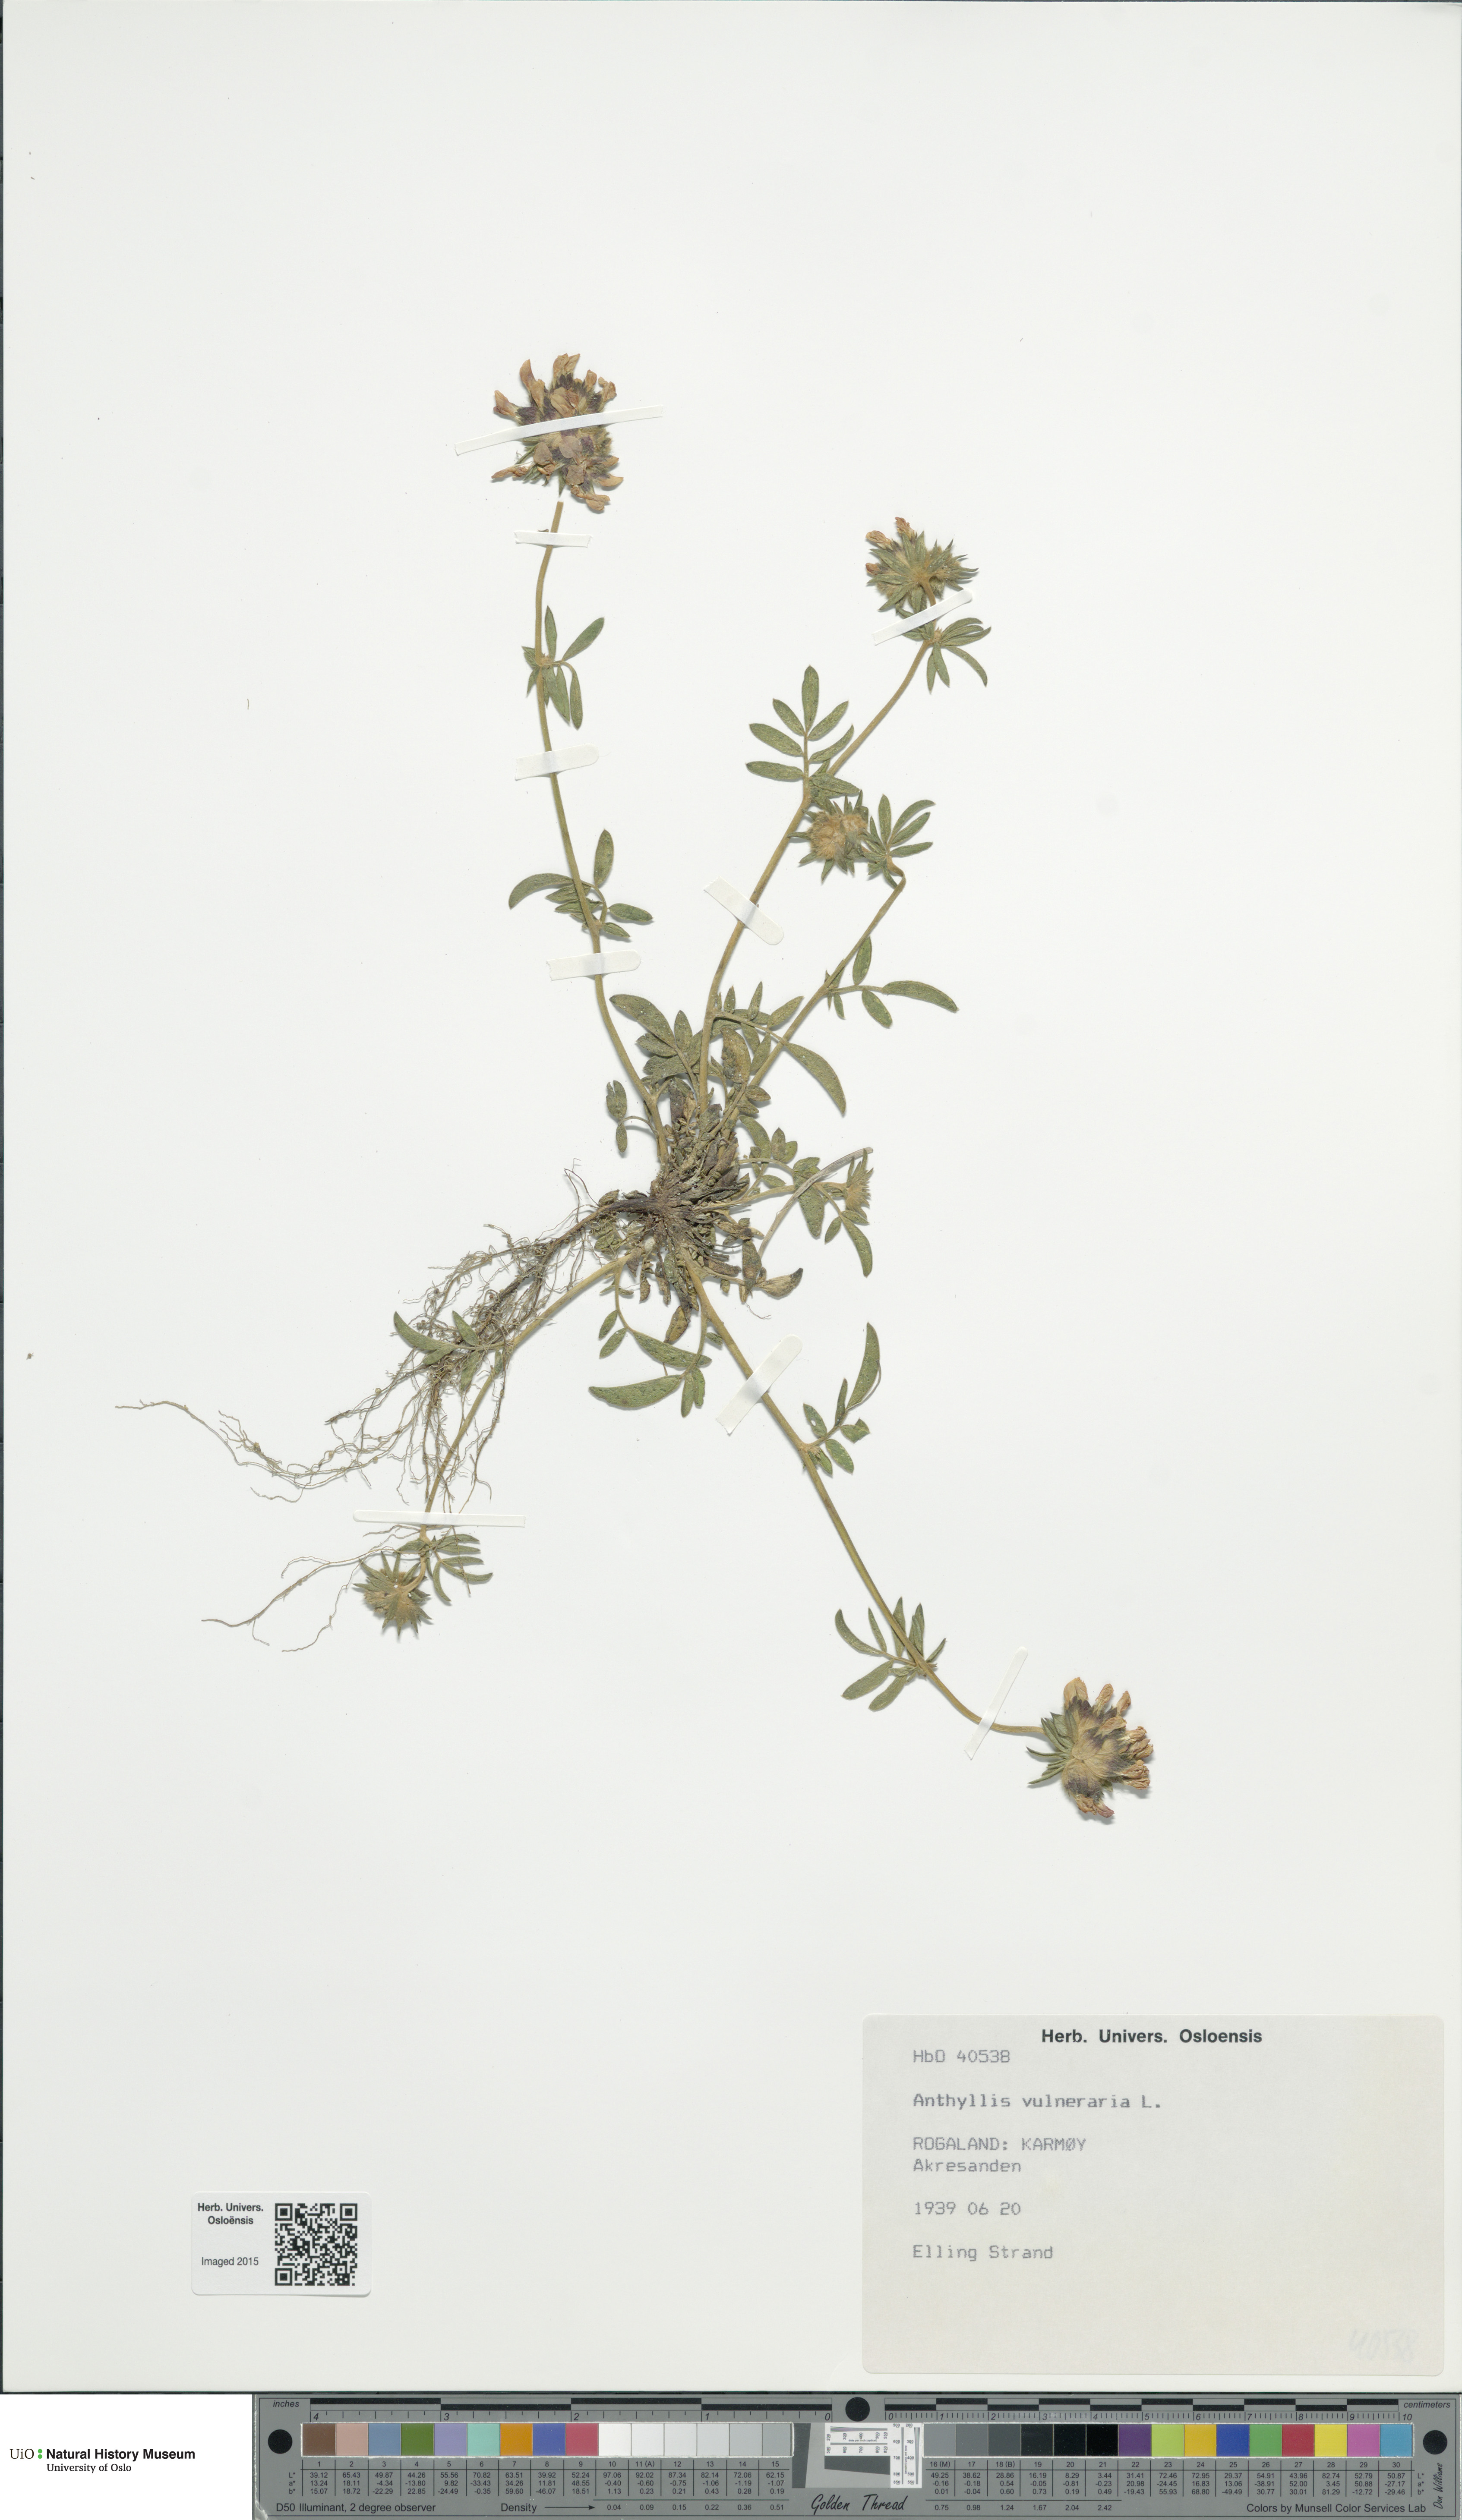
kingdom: Plantae
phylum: Tracheophyta
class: Magnoliopsida
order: Fabales
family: Fabaceae
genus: Anthyllis
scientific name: Anthyllis vulneraria
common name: Kidney vetch
